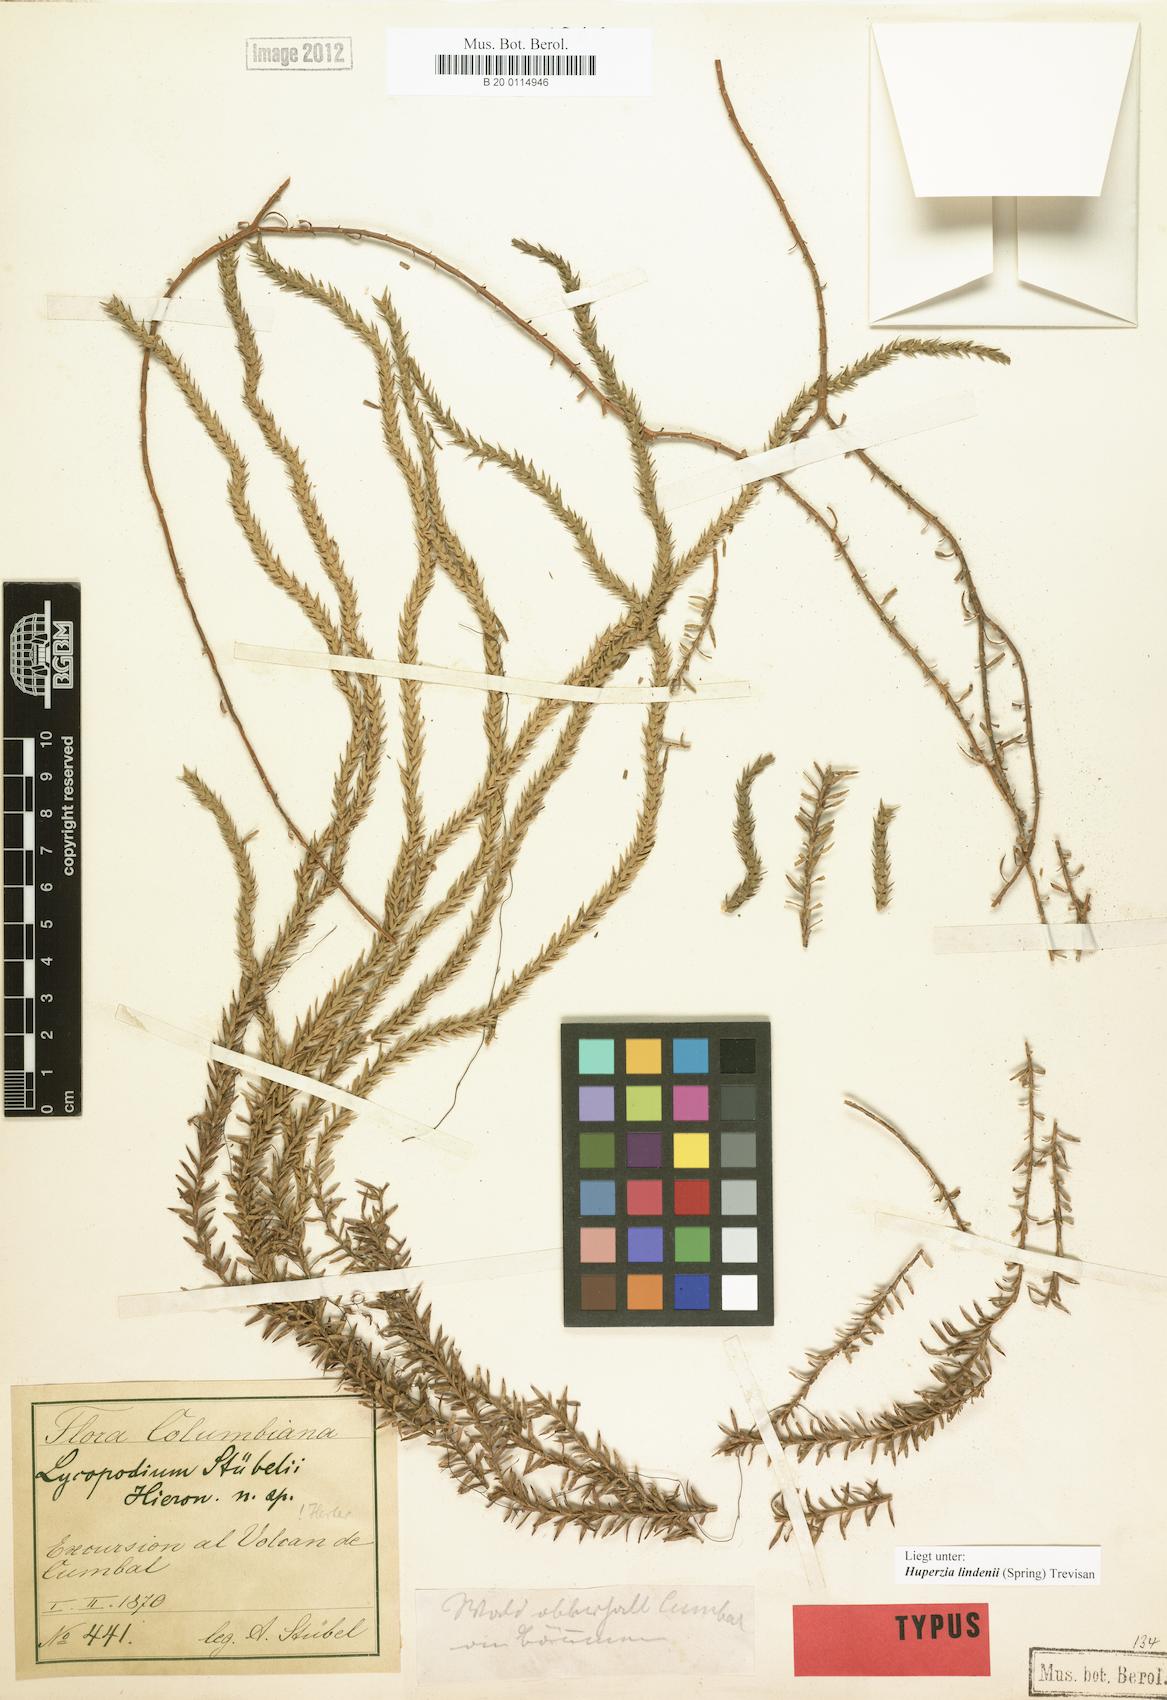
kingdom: Plantae
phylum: Tracheophyta
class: Lycopodiopsida
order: Lycopodiales
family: Lycopodiaceae
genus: Phlegmariurus
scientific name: Phlegmariurus lindenii
